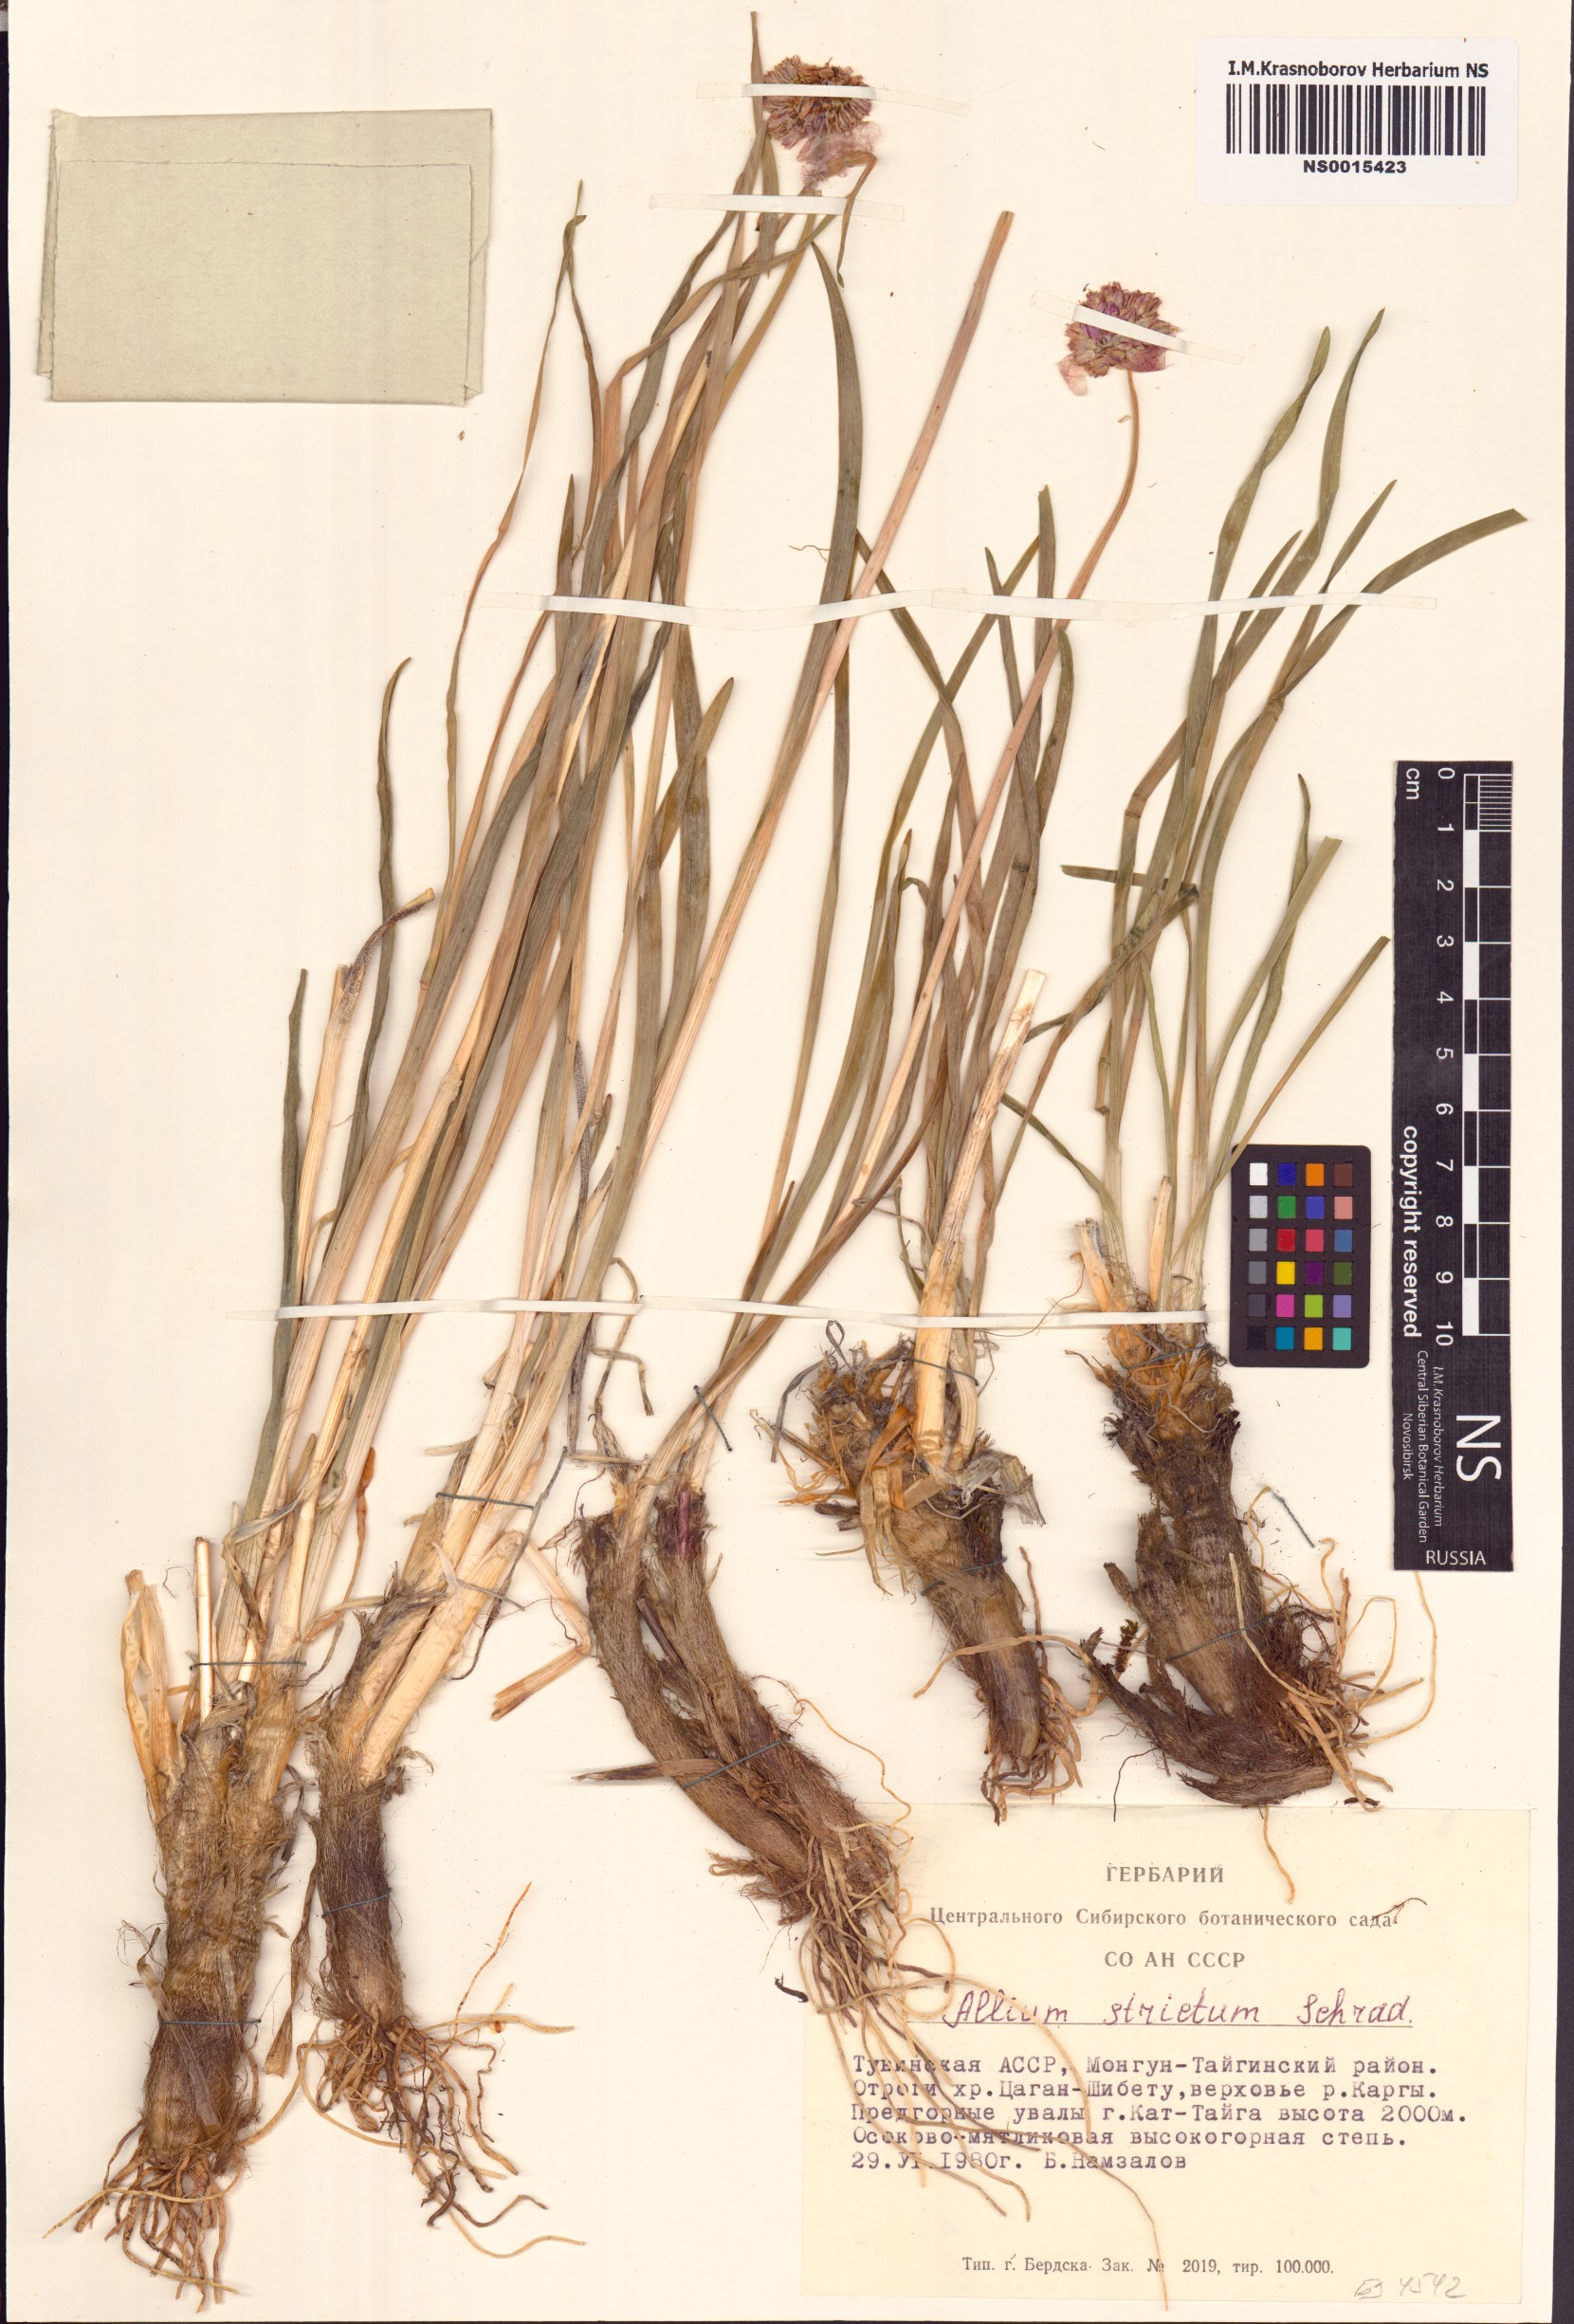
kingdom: Plantae
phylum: Tracheophyta
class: Liliopsida
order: Asparagales
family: Amaryllidaceae
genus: Allium
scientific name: Allium strictum
